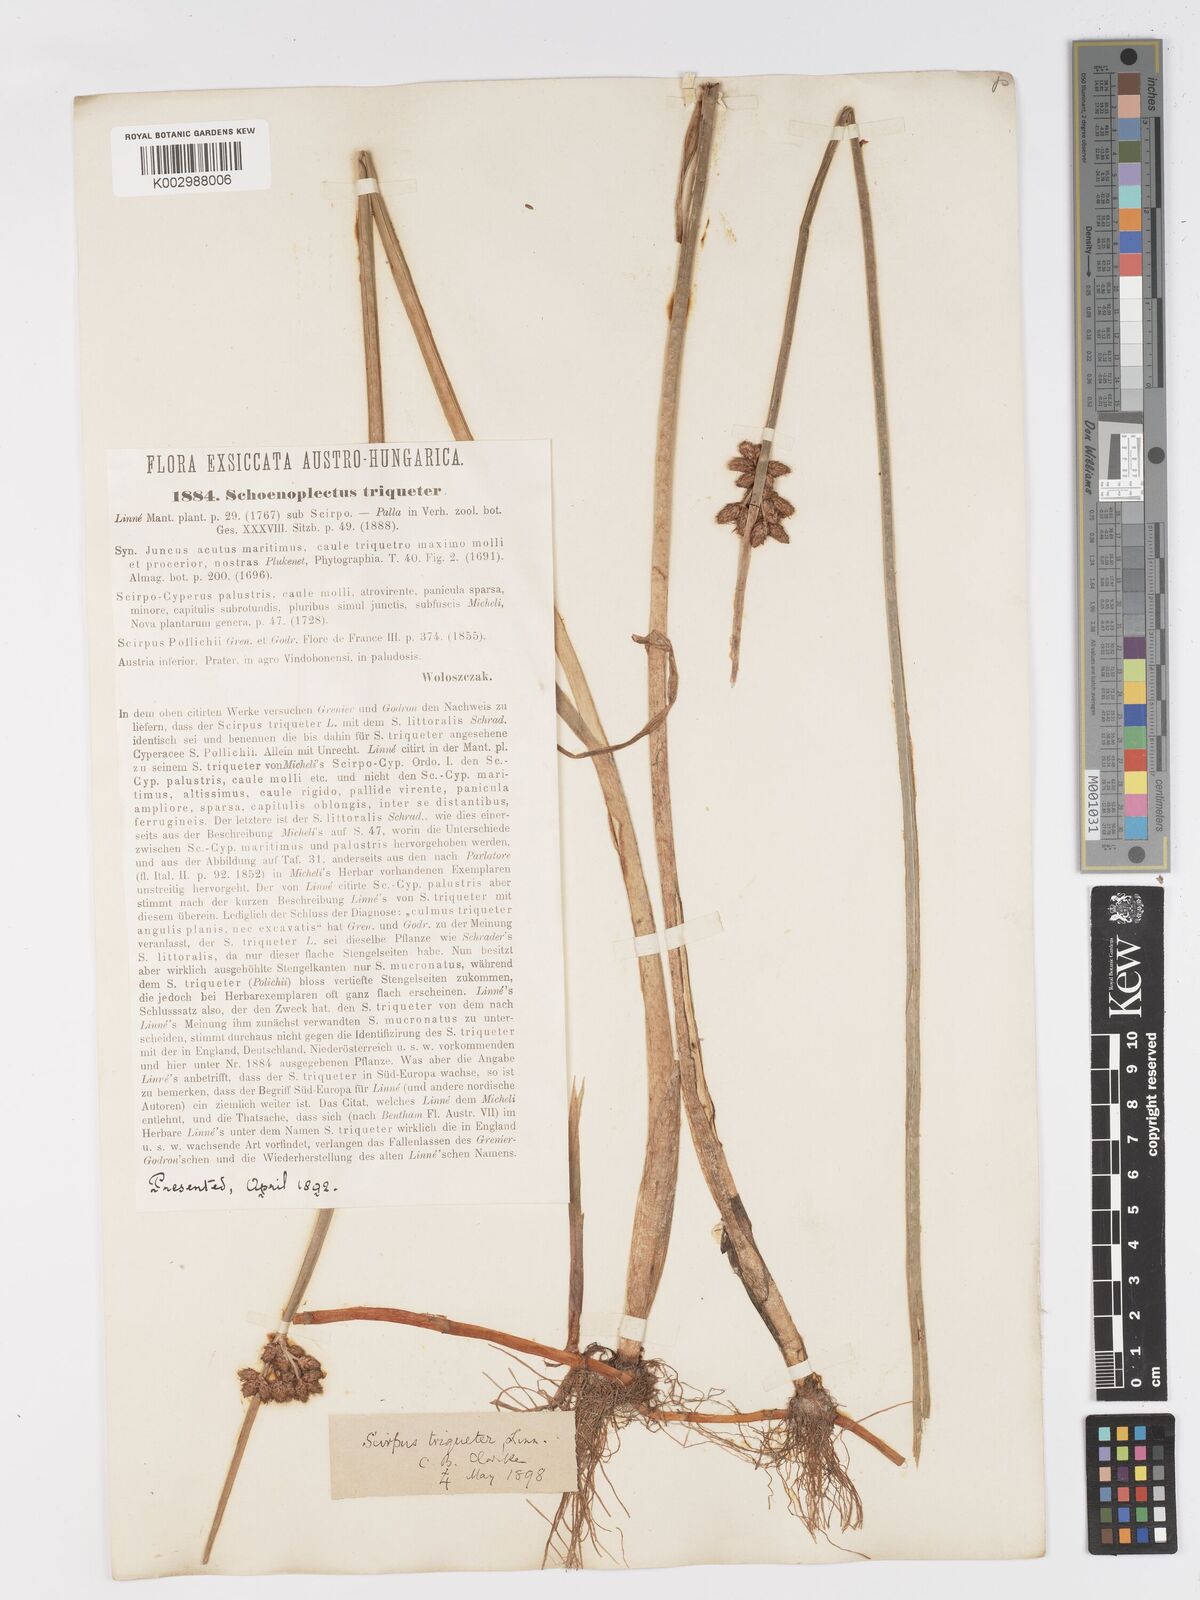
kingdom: Plantae
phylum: Tracheophyta
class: Liliopsida
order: Poales
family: Cyperaceae
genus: Schoenoplectus
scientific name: Schoenoplectus triqueter
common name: Triangular club-rush
